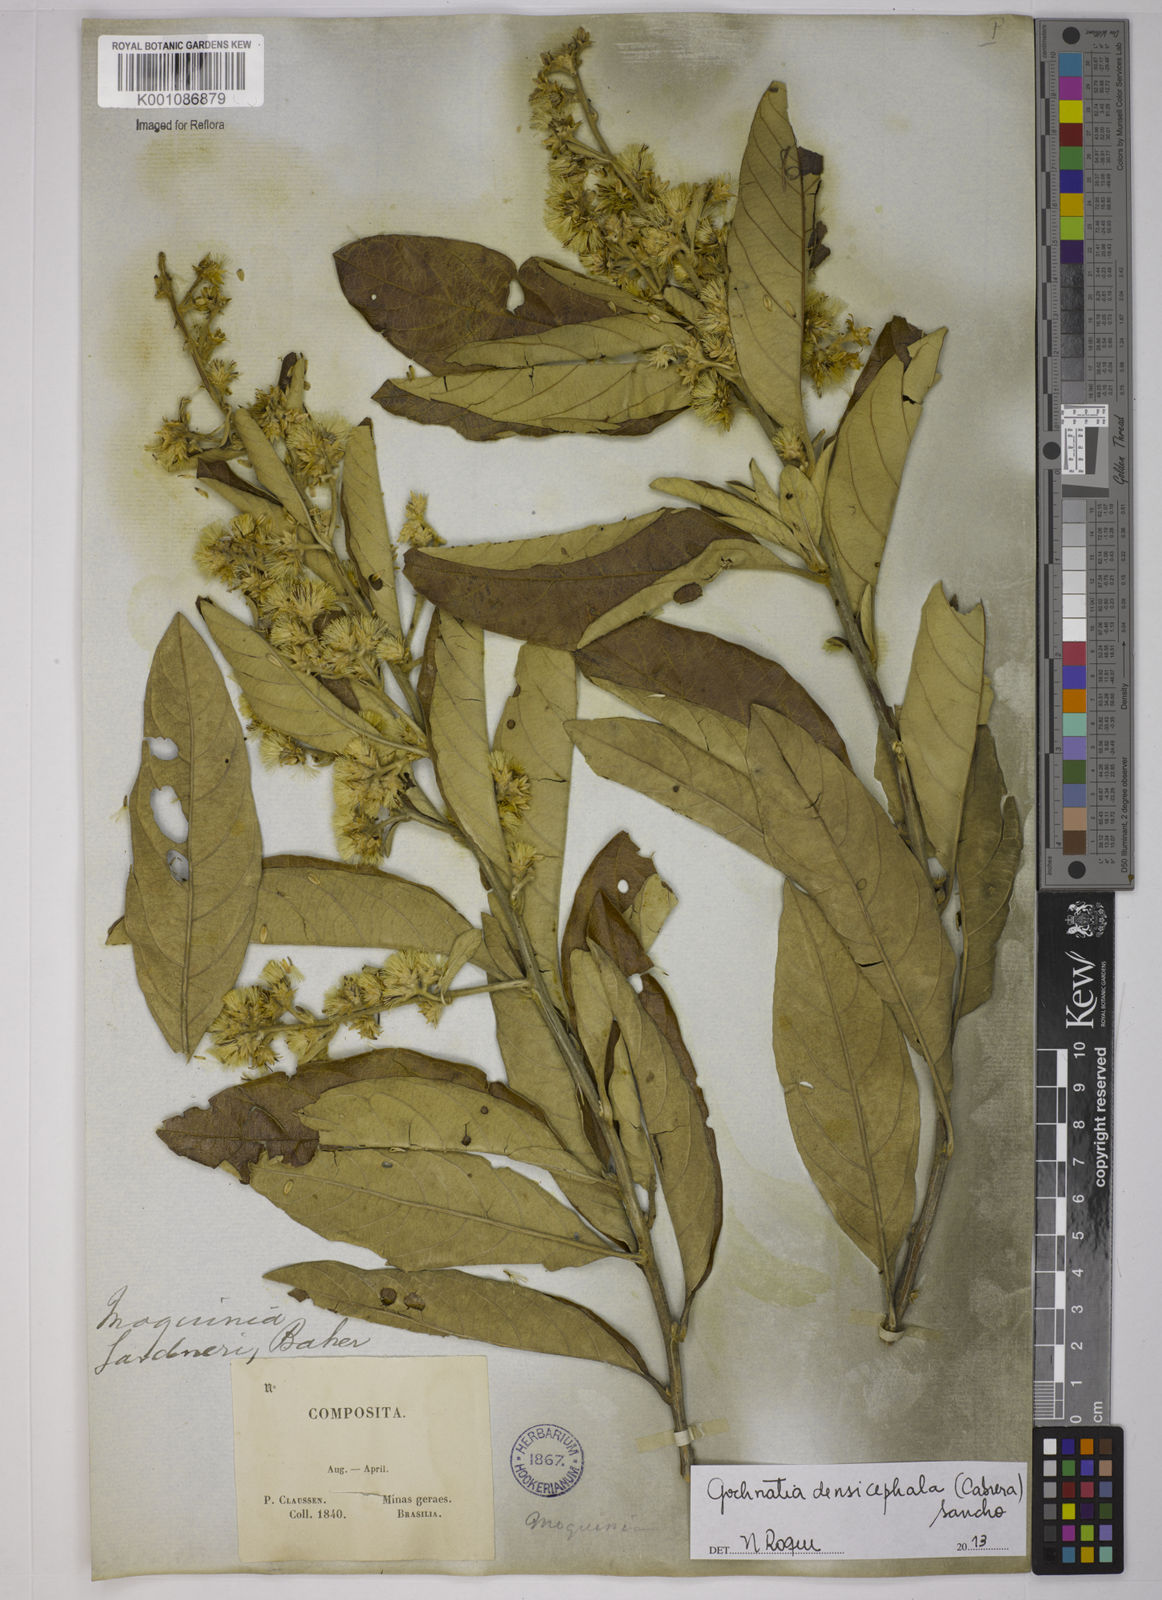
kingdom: Plantae
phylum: Tracheophyta
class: Magnoliopsida
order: Asterales
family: Asteraceae
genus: Moquiniastrum
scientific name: Moquiniastrum densicephalum
